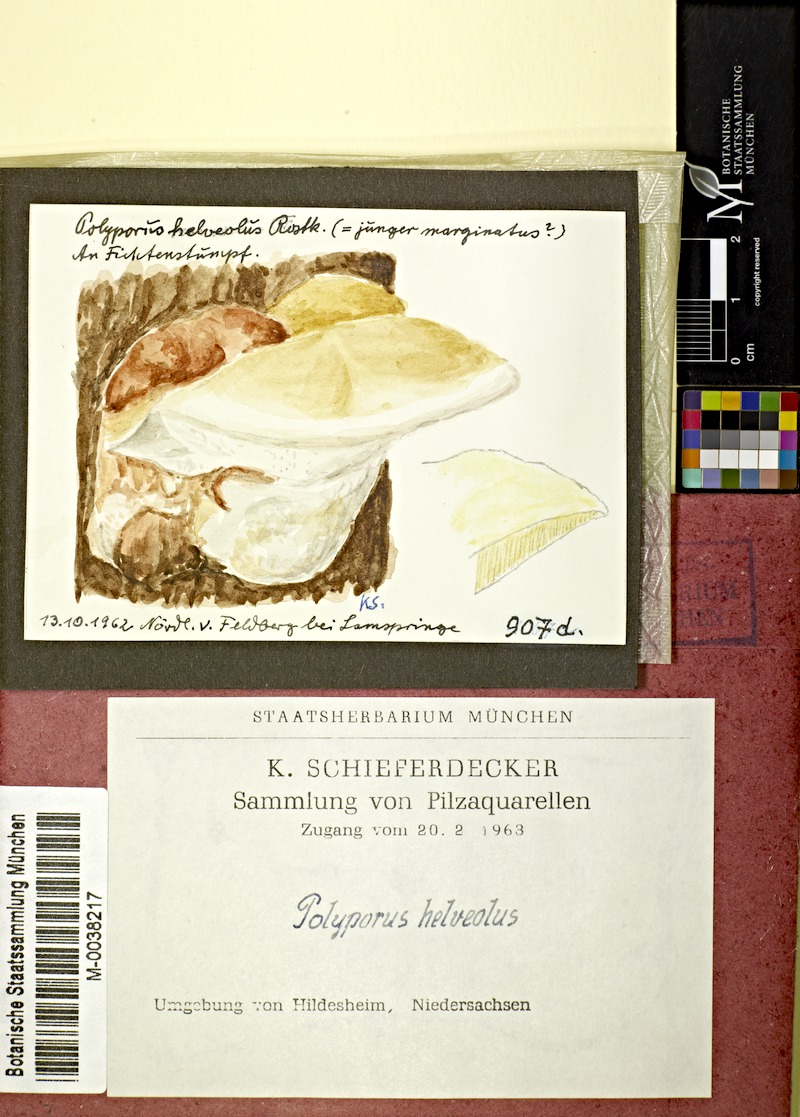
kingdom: Plantae
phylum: Tracheophyta
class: Pinopsida
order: Pinales
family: Pinaceae
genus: Picea
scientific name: Picea abies
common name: Norway spruce
